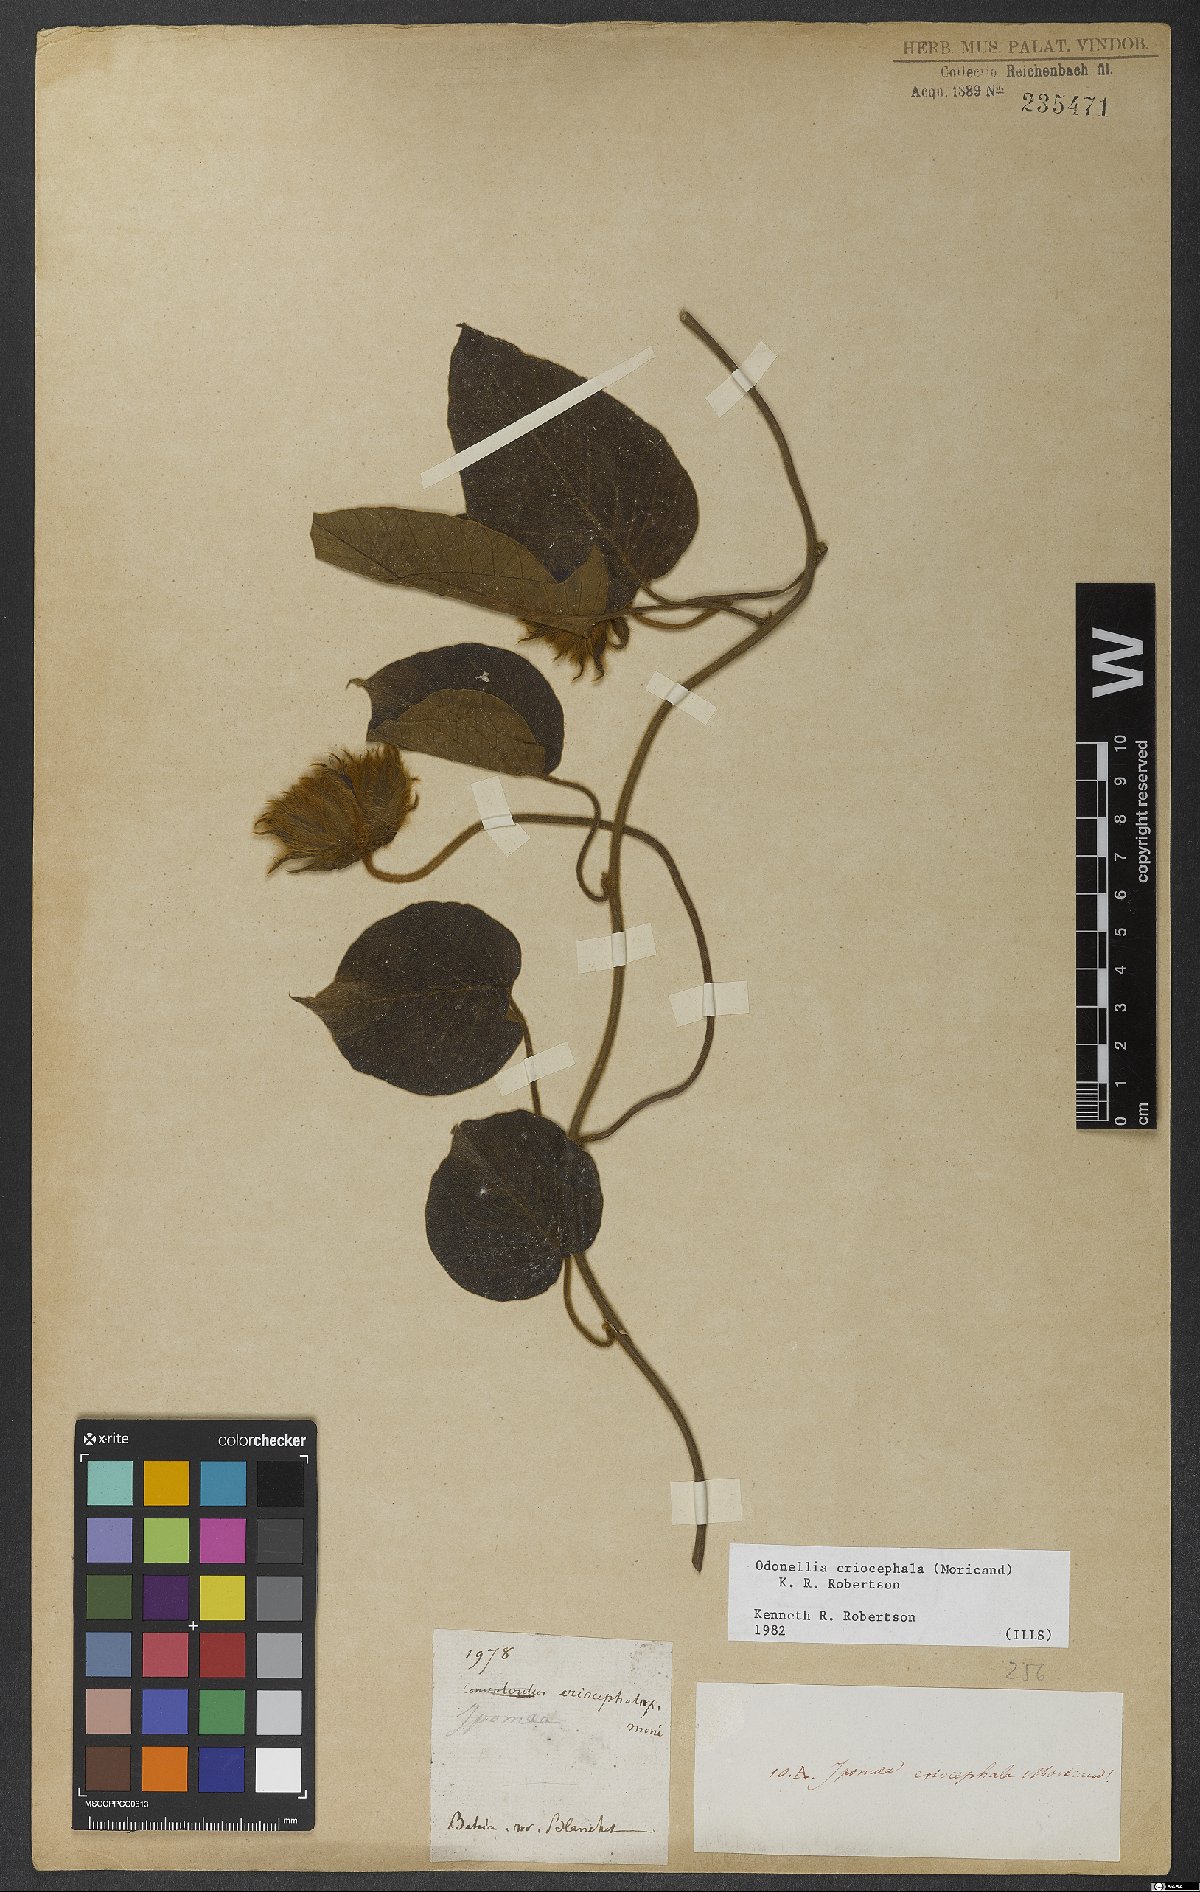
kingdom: Plantae
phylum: Tracheophyta
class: Magnoliopsida
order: Solanales
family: Convolvulaceae
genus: Odonellia
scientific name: Odonellia eriocephala
